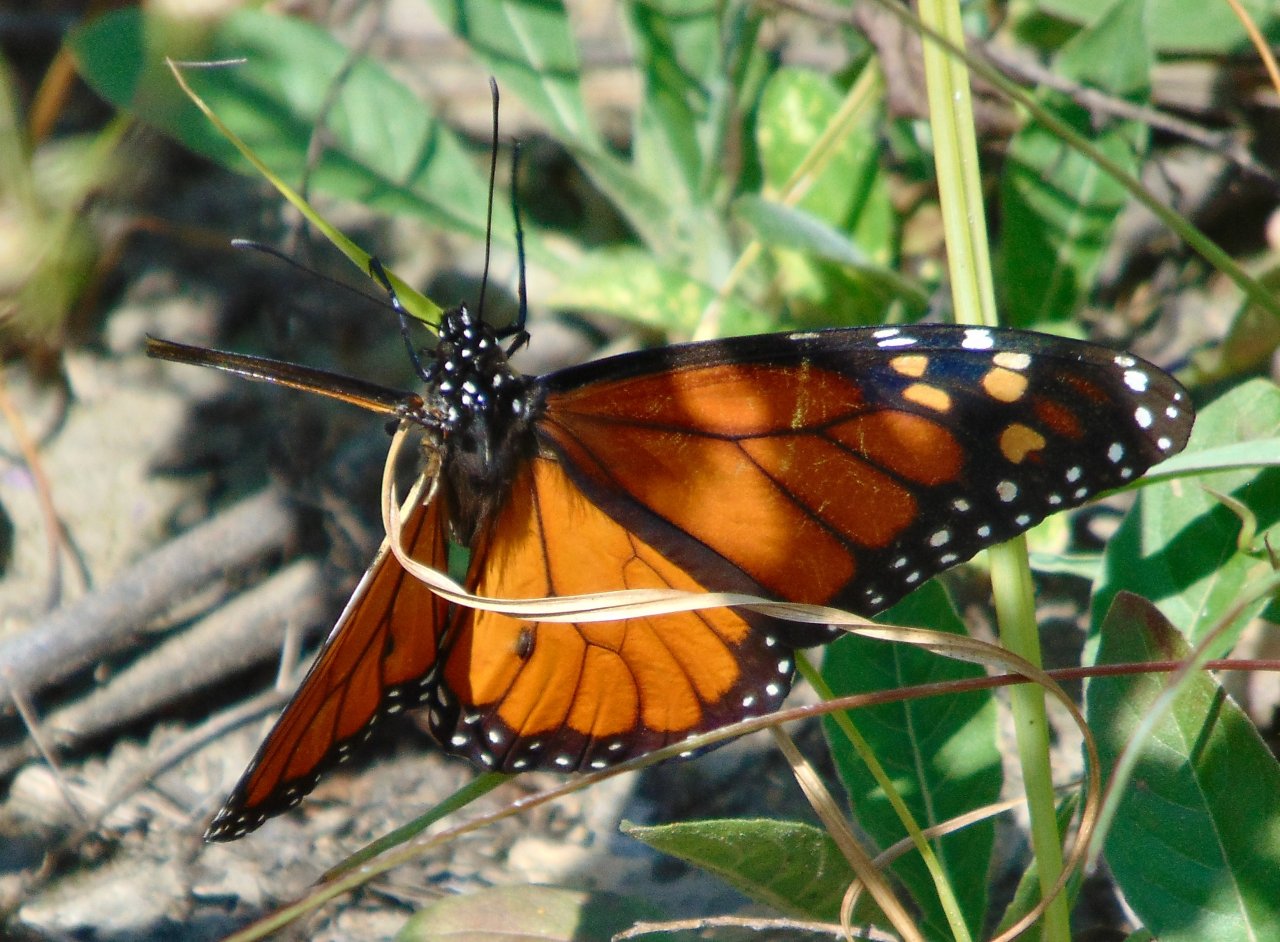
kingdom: Animalia
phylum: Arthropoda
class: Insecta
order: Lepidoptera
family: Nymphalidae
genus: Danaus
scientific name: Danaus plexippus
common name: Monarch
